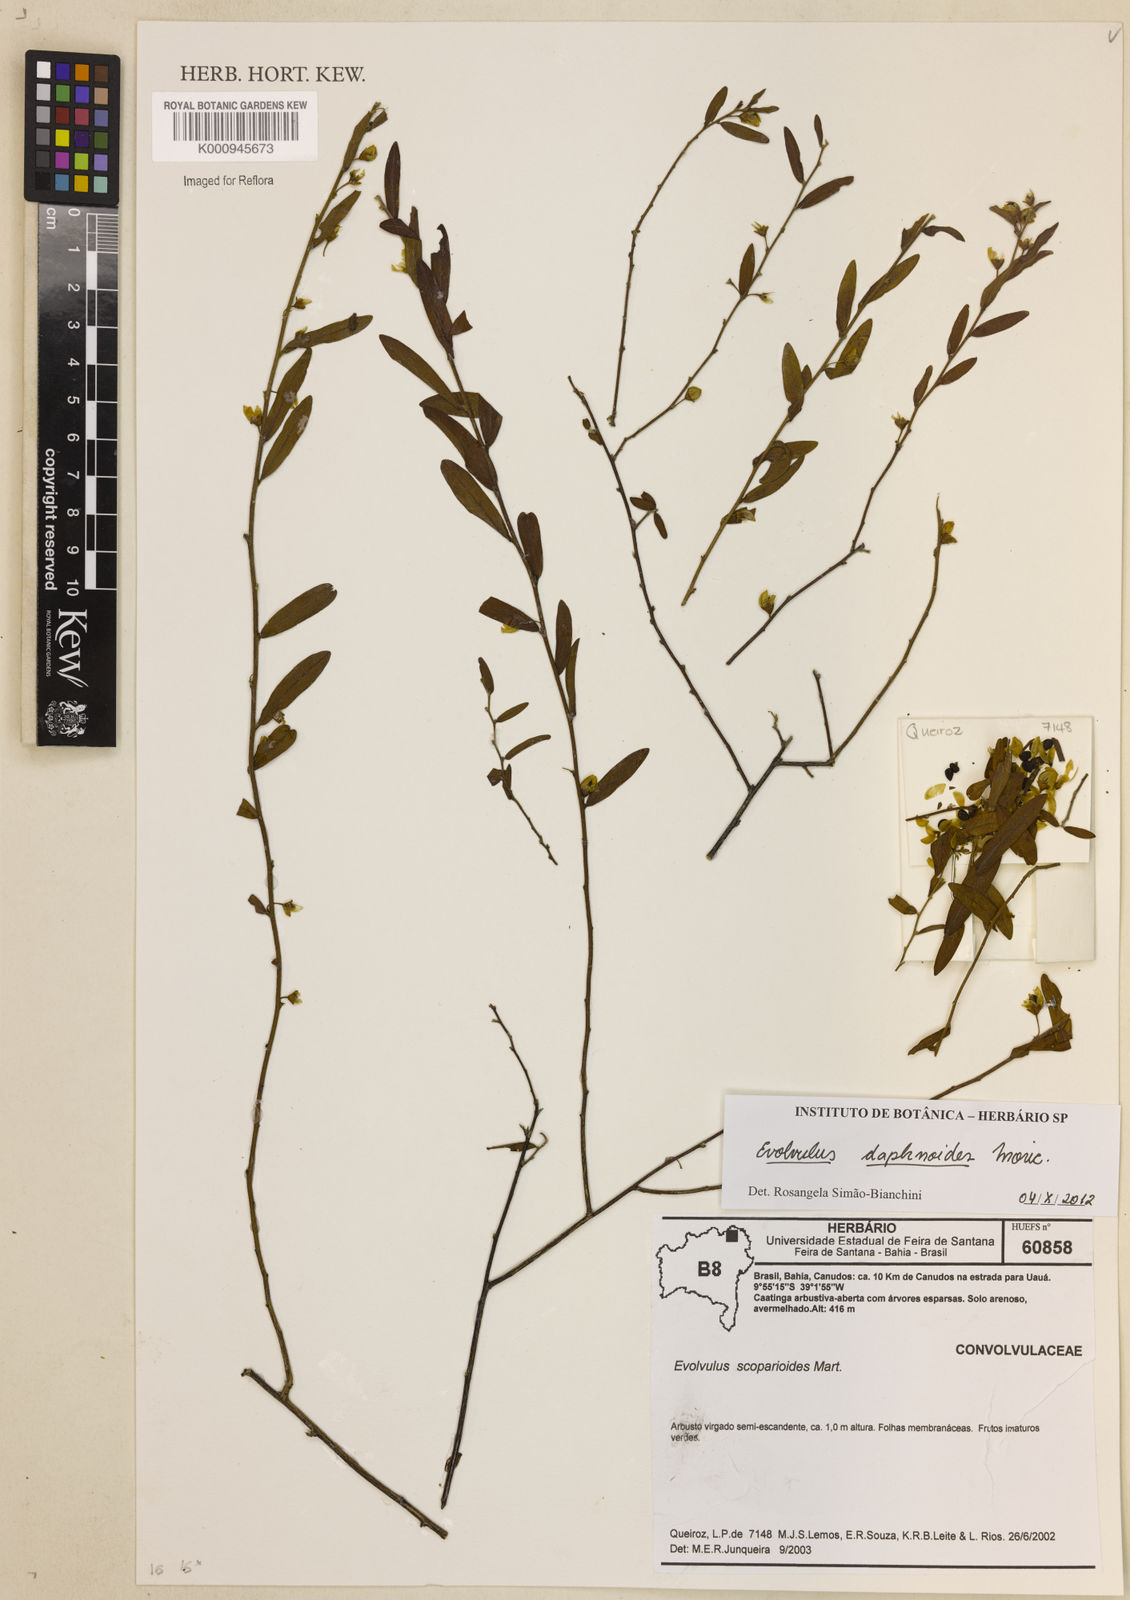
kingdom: Plantae
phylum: Tracheophyta
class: Magnoliopsida
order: Solanales
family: Convolvulaceae
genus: Evolvulus
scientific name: Evolvulus daphnoides
